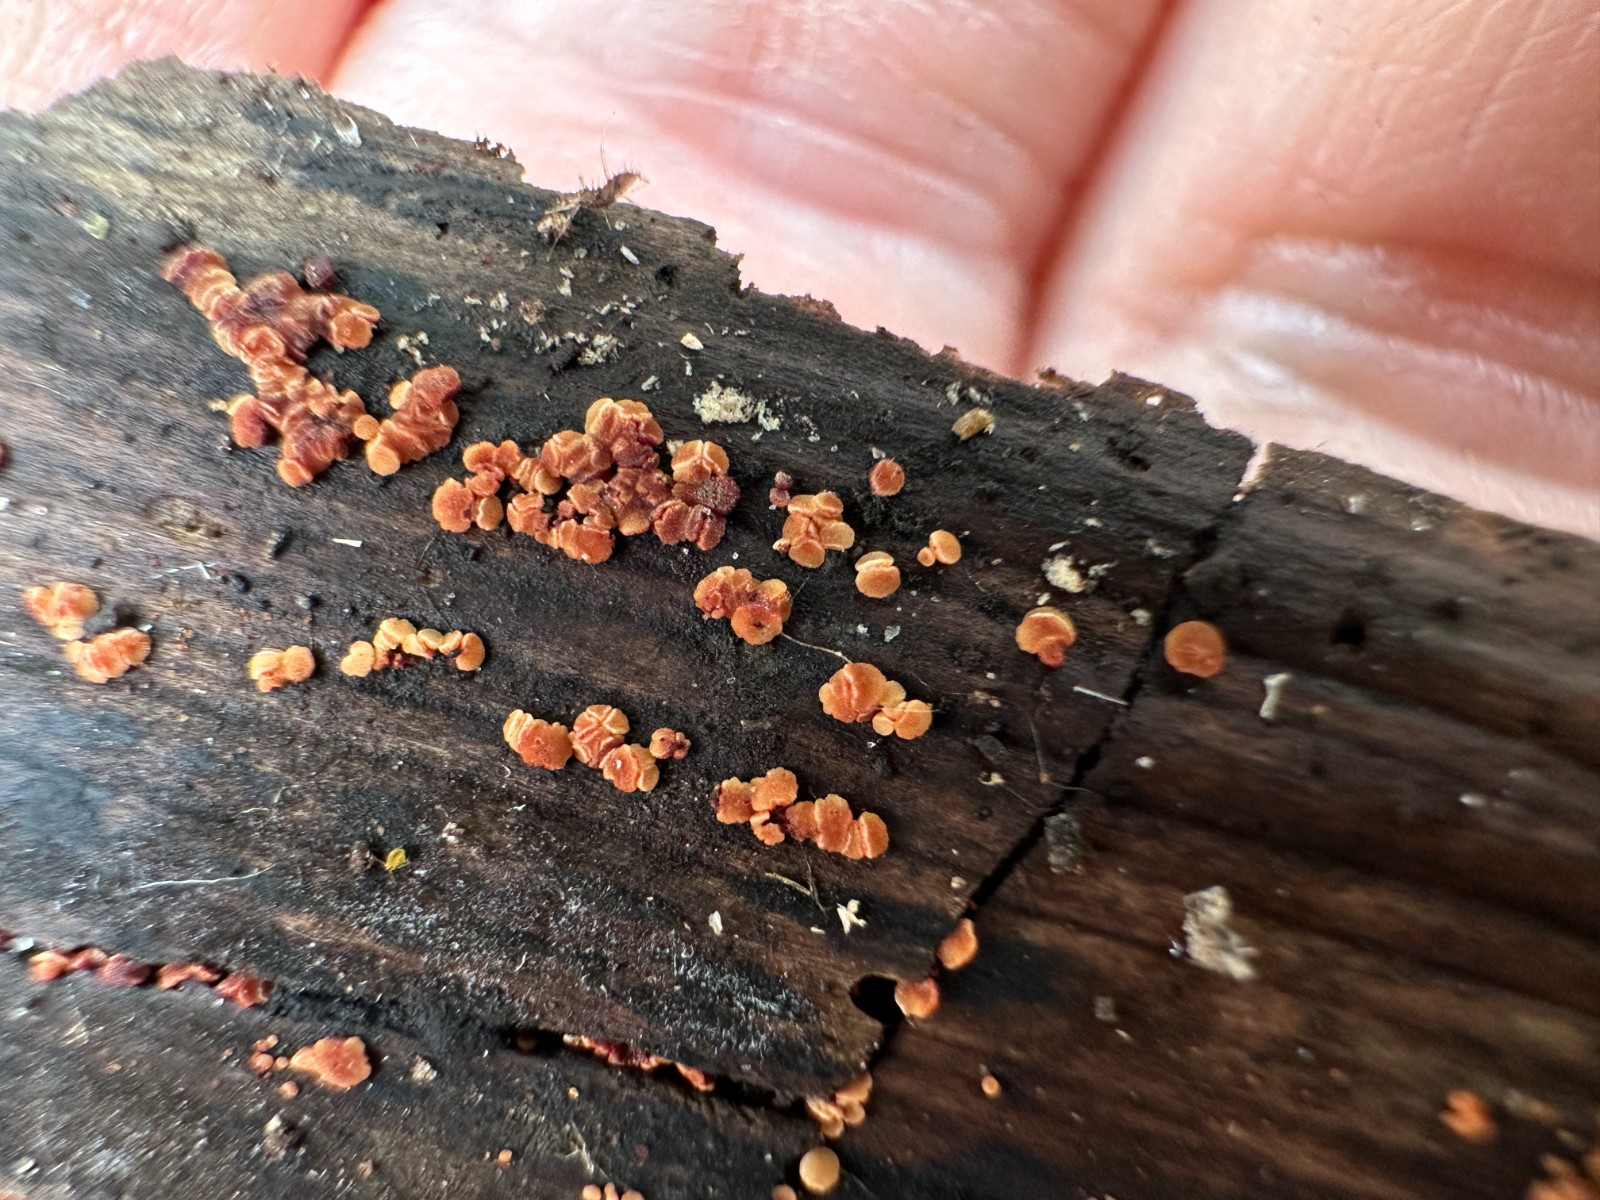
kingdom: Fungi
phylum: Ascomycota
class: Leotiomycetes
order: Helotiales
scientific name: Helotiales
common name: stilkskiveordenen
